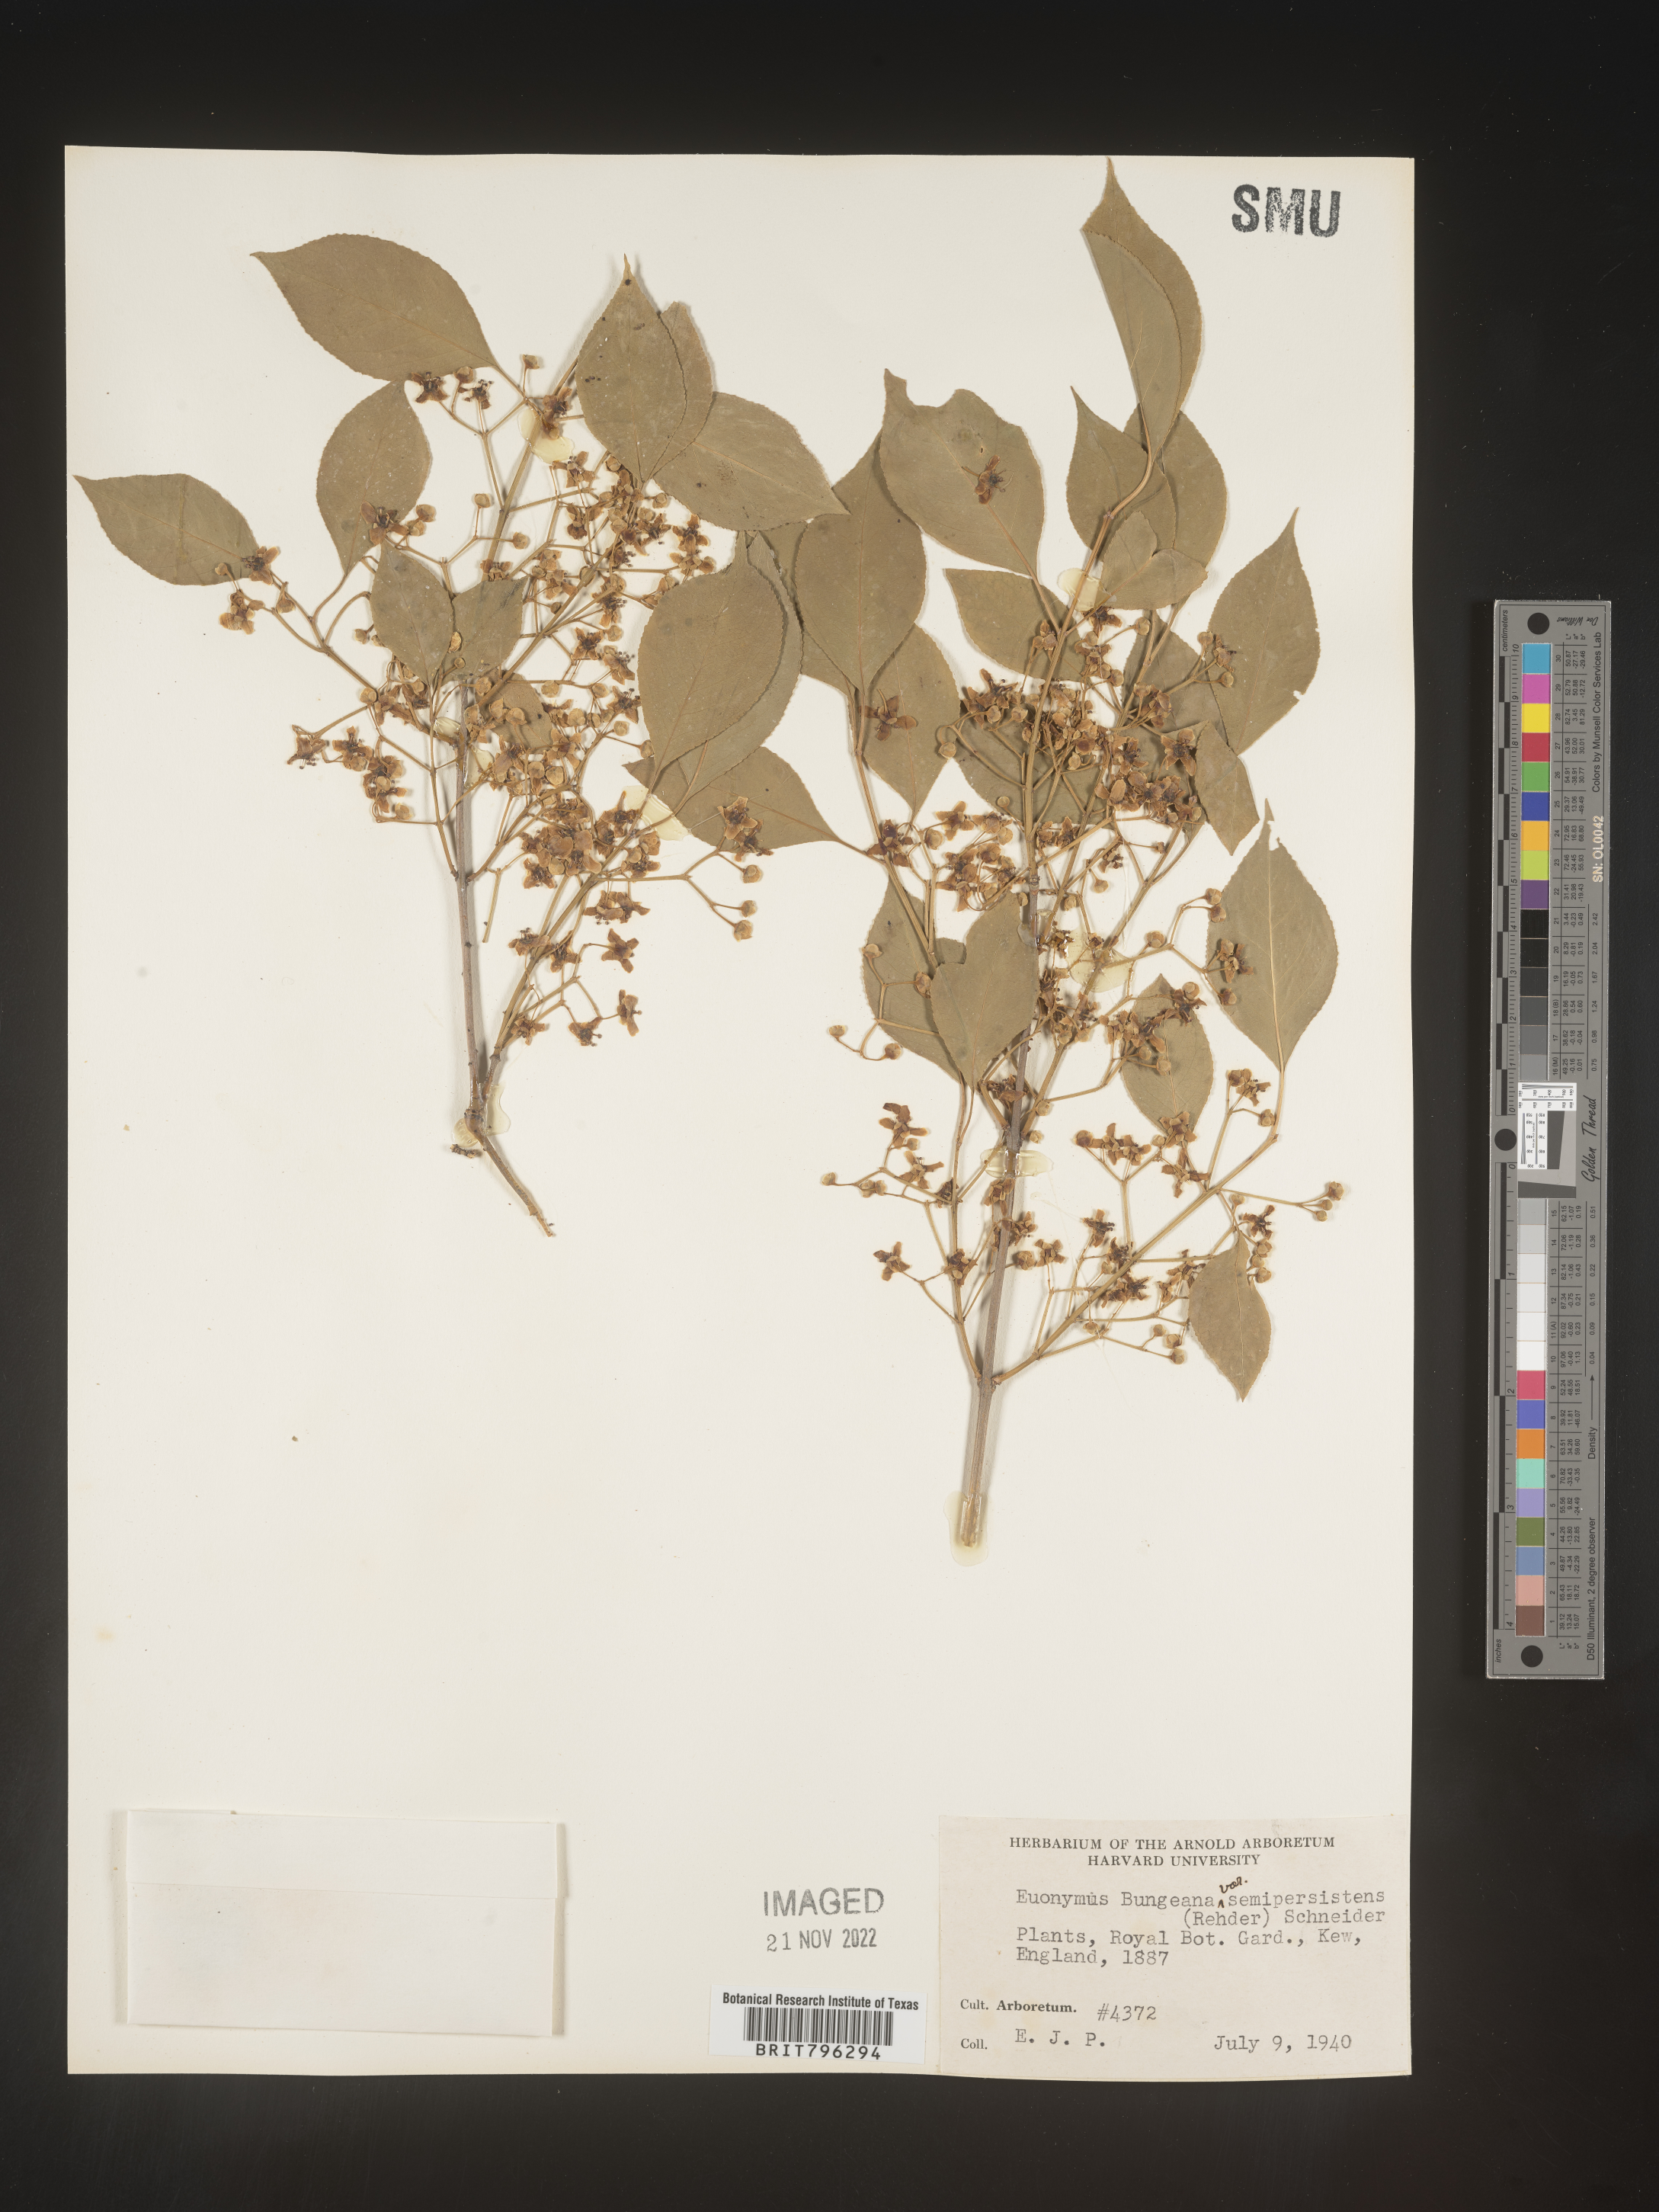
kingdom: Plantae
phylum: Tracheophyta
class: Magnoliopsida
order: Celastrales
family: Celastraceae
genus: Euonymus
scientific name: Euonymus
